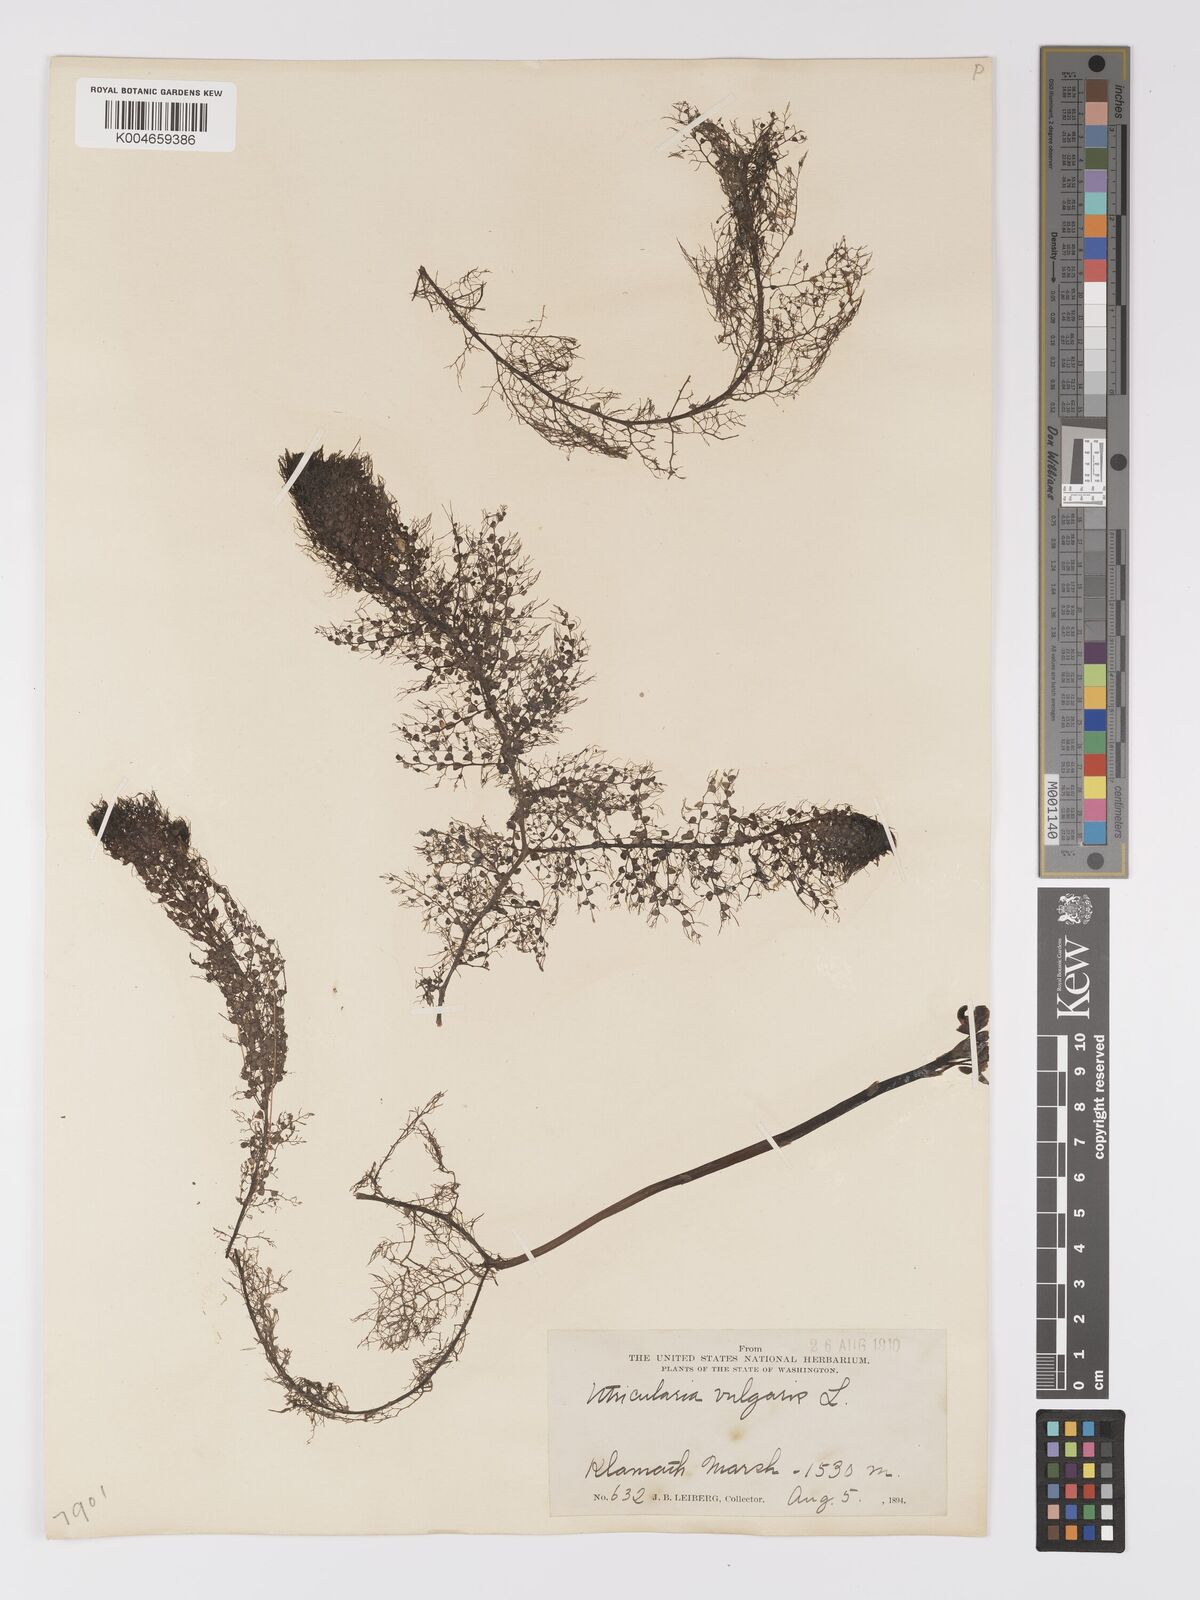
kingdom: Plantae
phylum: Tracheophyta
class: Magnoliopsida
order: Lamiales
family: Lentibulariaceae
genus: Utricularia
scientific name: Utricularia macrorhiza
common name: Common bladderwort
